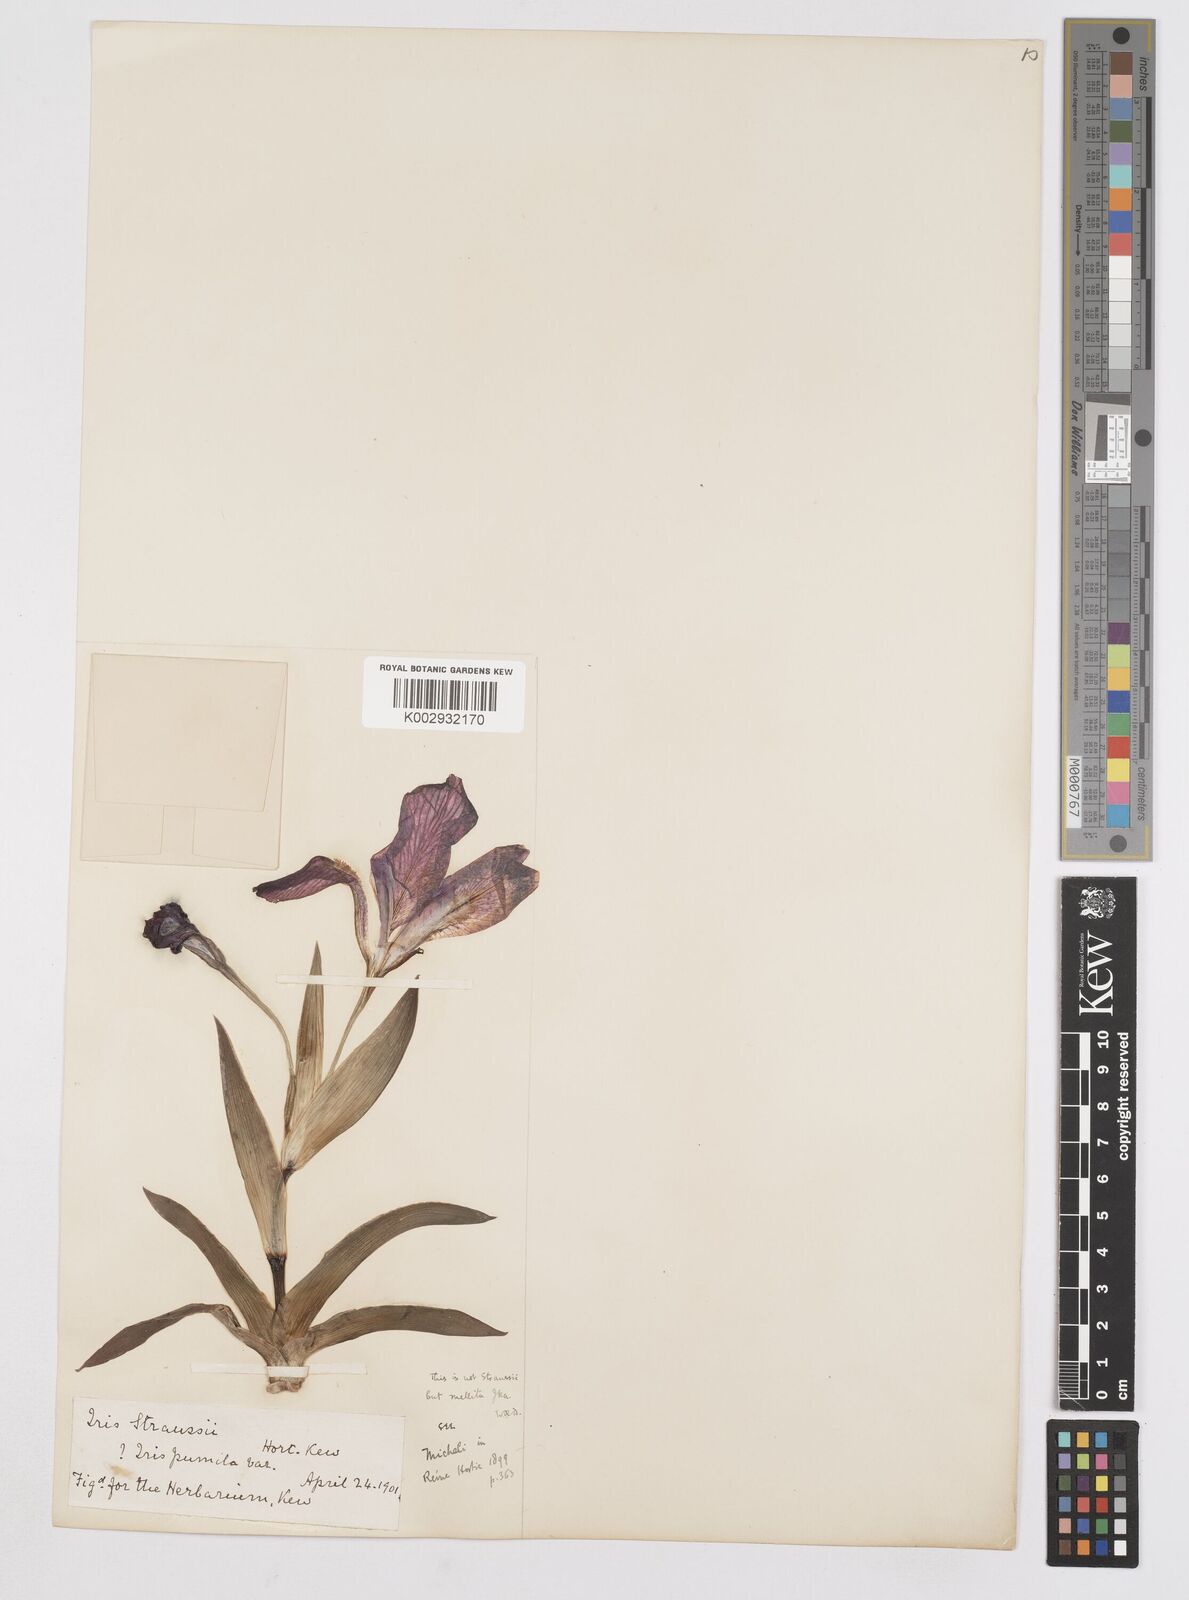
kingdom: Plantae
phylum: Tracheophyta
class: Liliopsida
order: Asparagales
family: Iridaceae
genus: Iris
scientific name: Iris suaveolens
